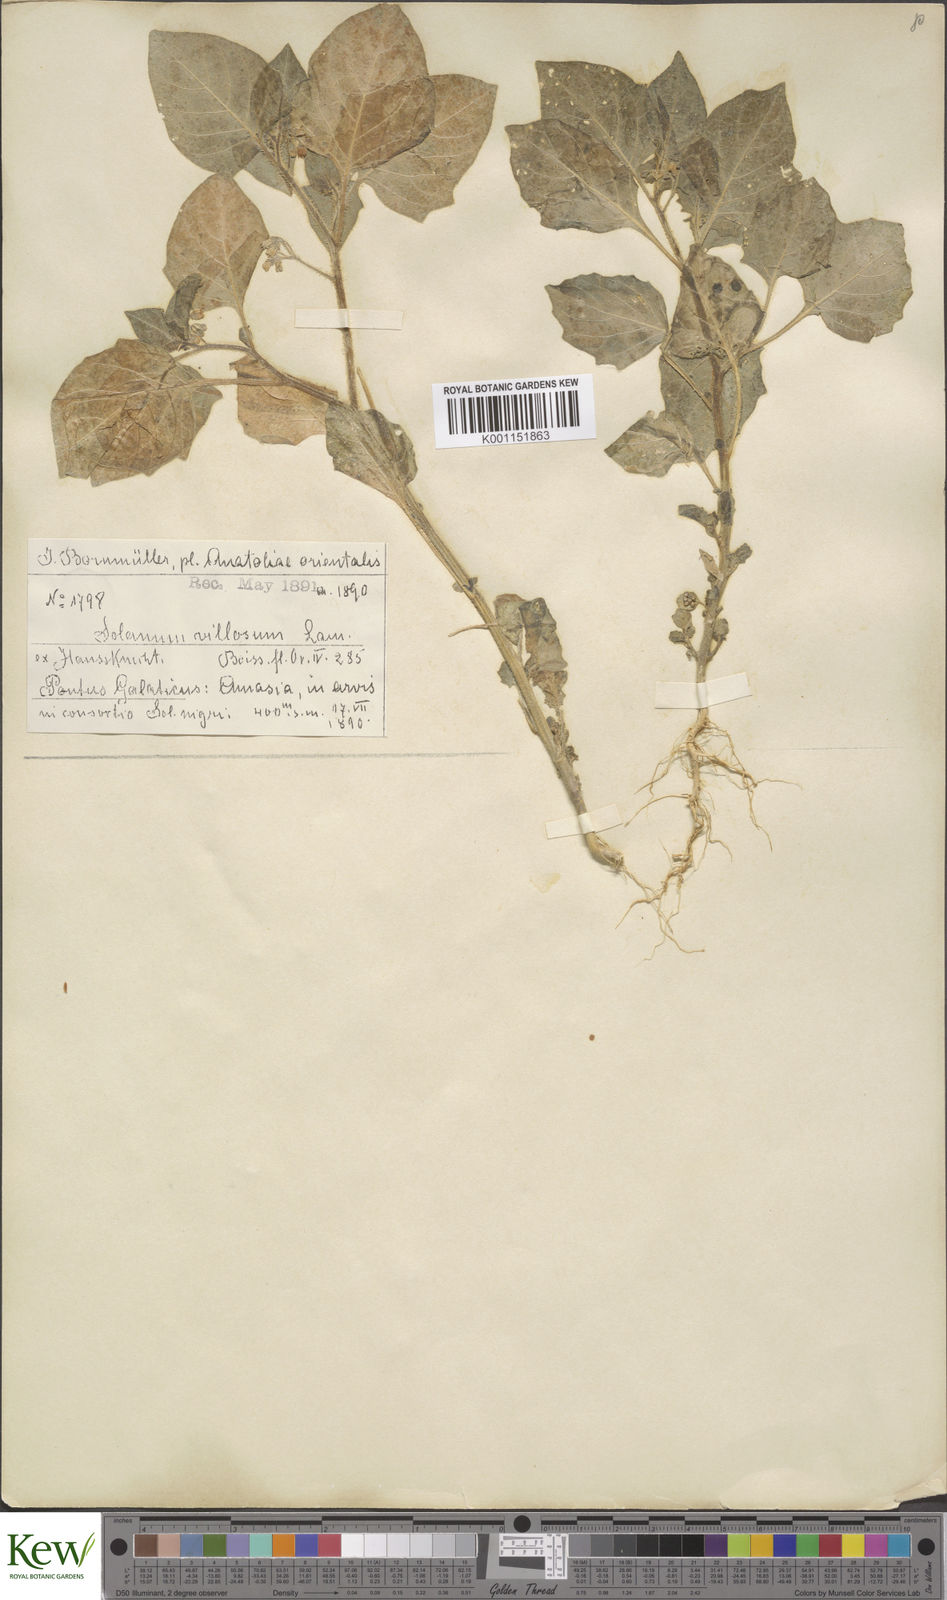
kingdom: Plantae
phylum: Tracheophyta
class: Magnoliopsida
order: Solanales
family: Solanaceae
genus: Solanum
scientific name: Solanum memphiticum
